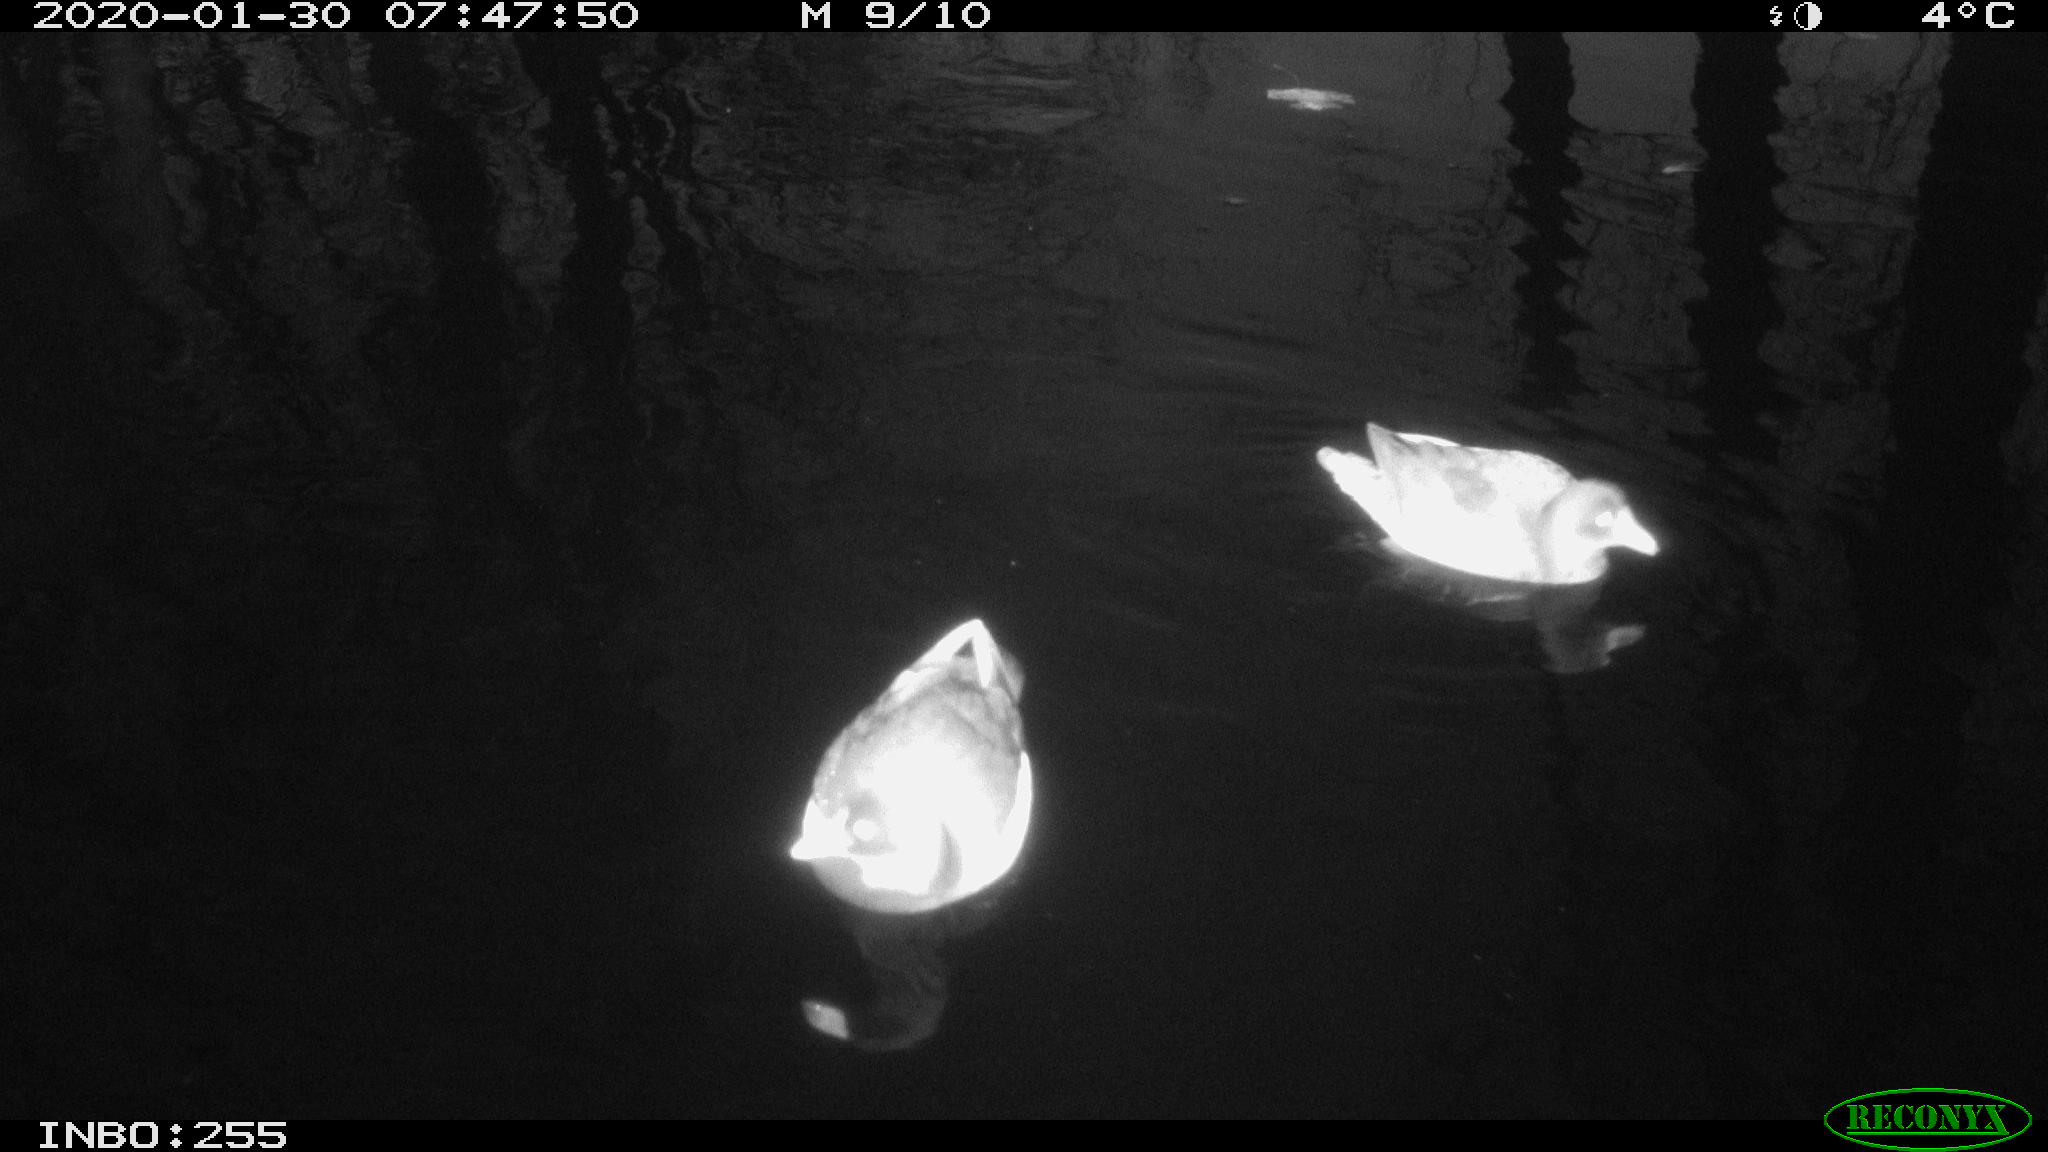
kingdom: Animalia
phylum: Chordata
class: Aves
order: Gruiformes
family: Rallidae
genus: Gallinula
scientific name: Gallinula chloropus
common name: Common moorhen
